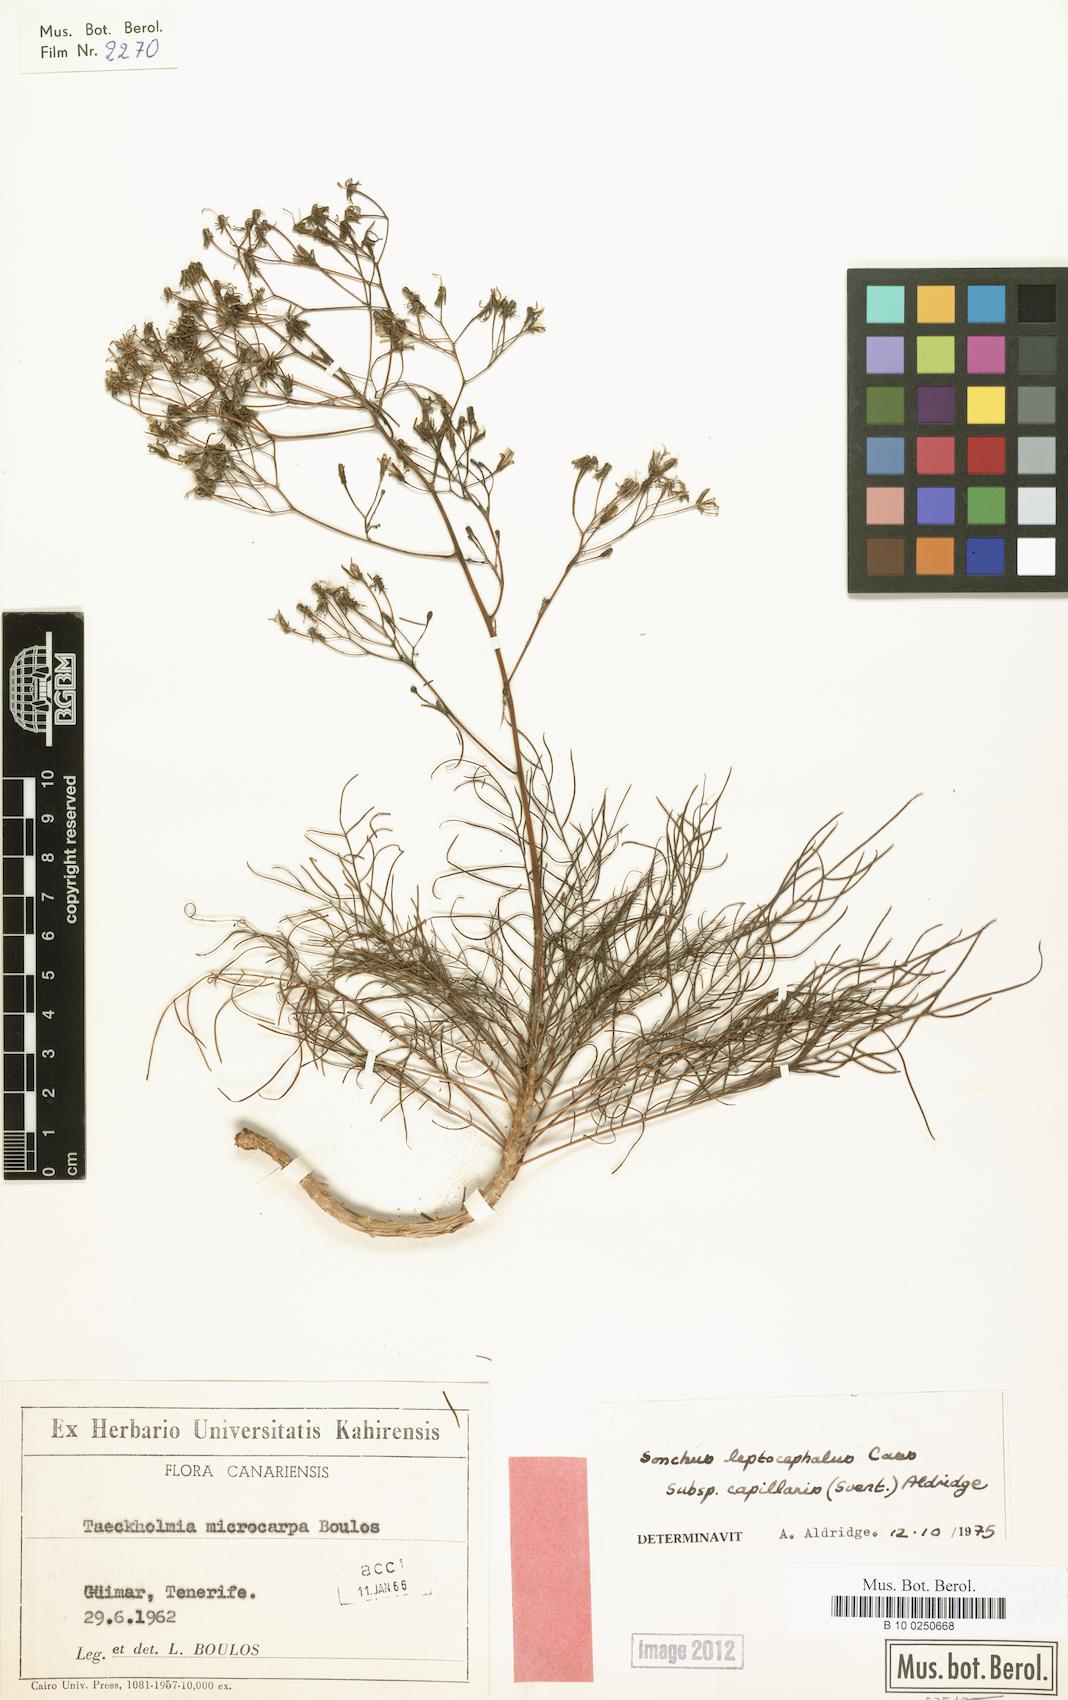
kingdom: Plantae
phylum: Tracheophyta
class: Magnoliopsida
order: Asterales
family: Asteraceae
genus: Sonchus
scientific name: Sonchus capillaris
